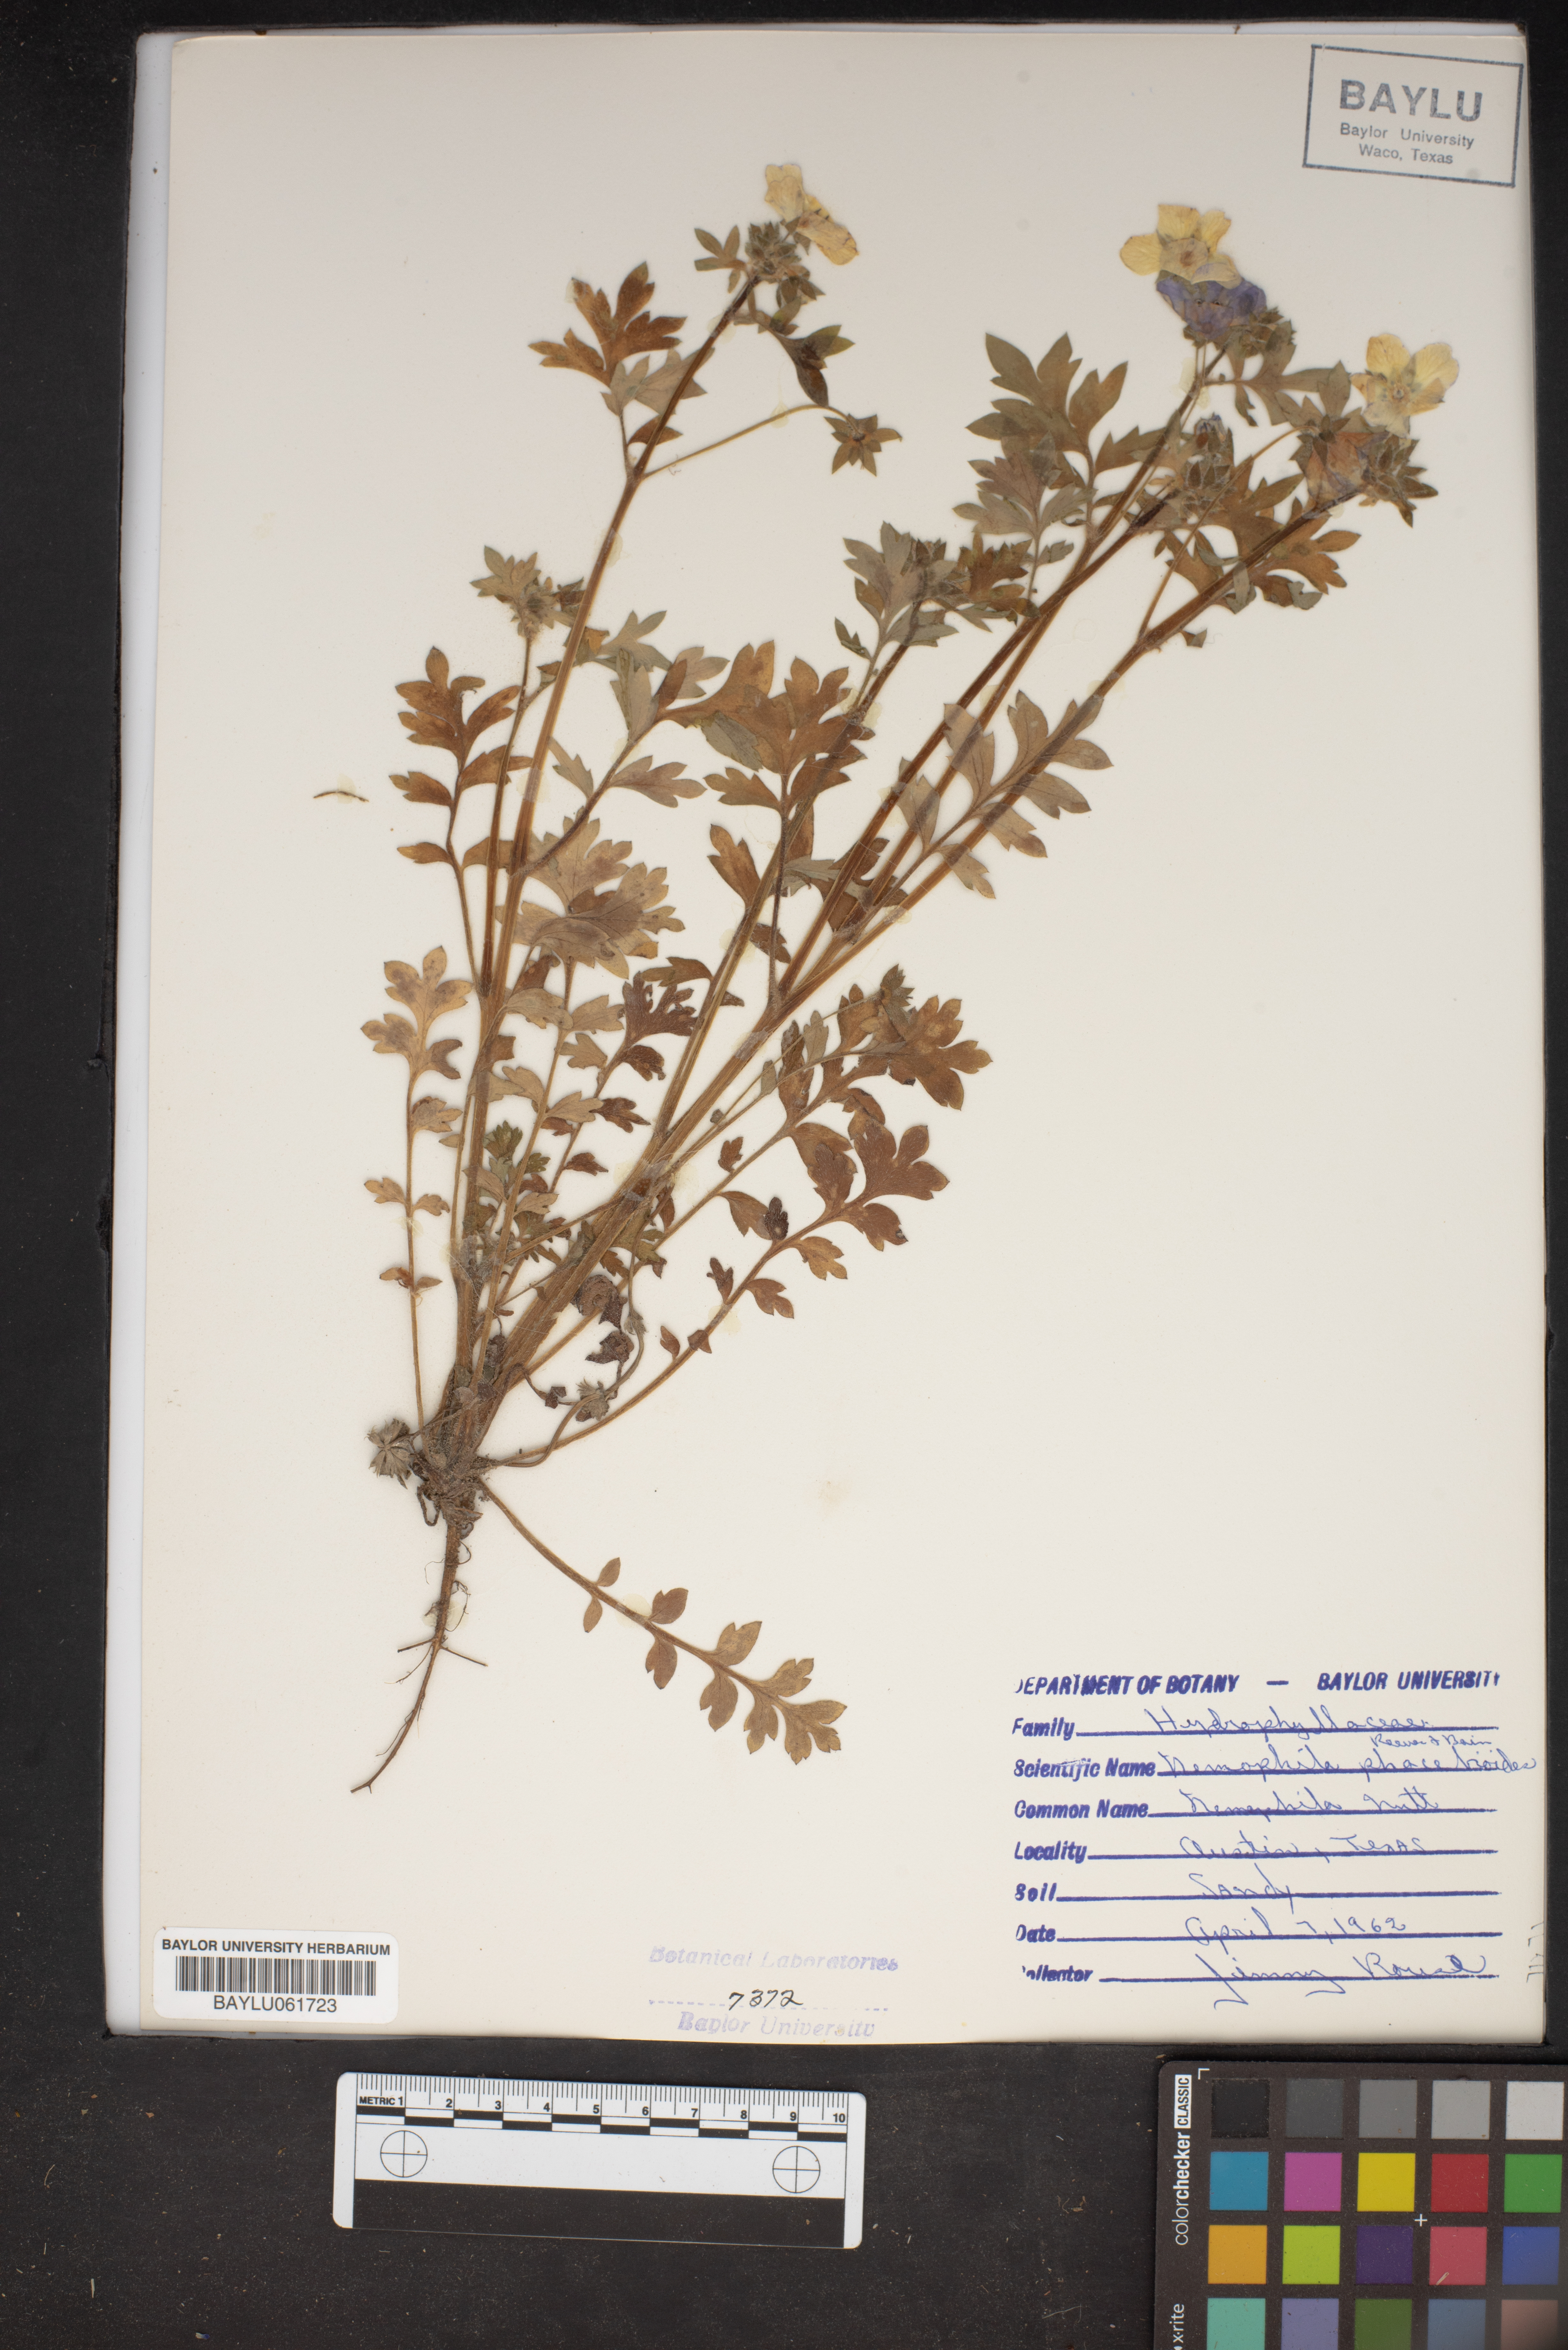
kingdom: Plantae
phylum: Tracheophyta
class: Magnoliopsida
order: Boraginales
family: Hydrophyllaceae
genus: Nemophila
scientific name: Nemophila phacelioides
